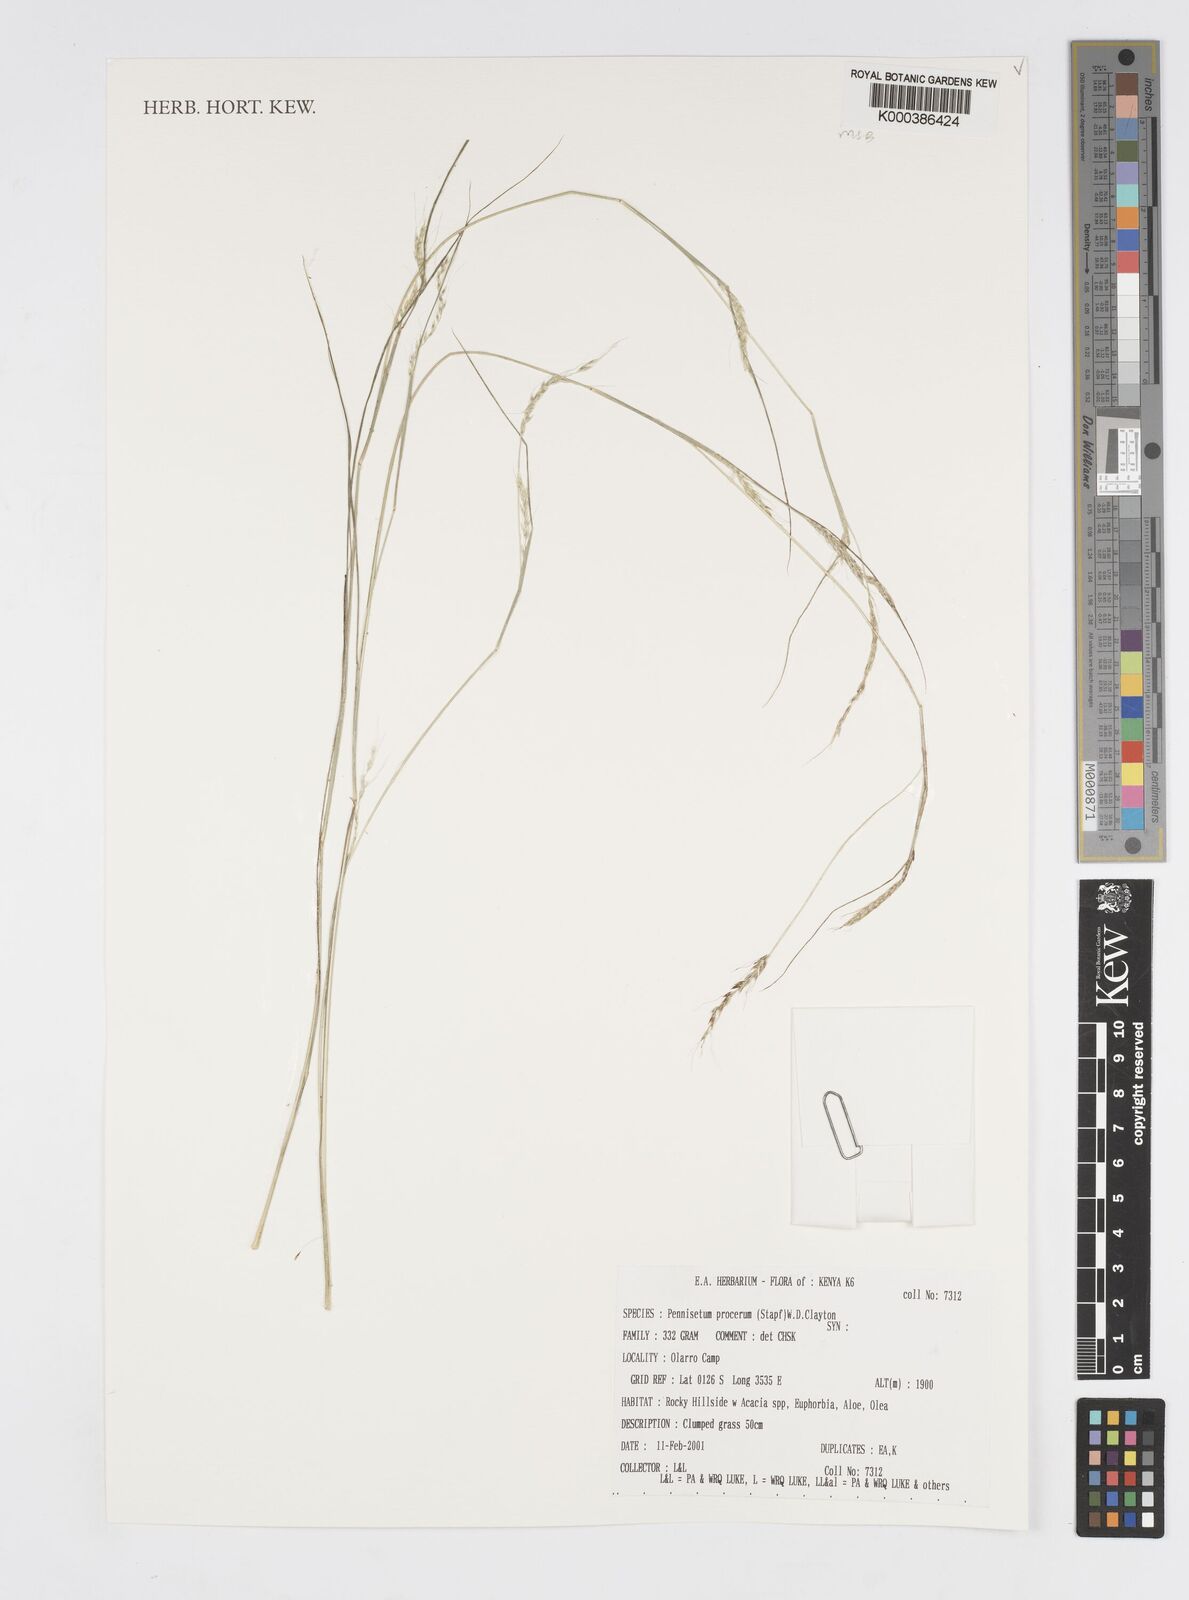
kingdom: Plantae
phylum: Tracheophyta
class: Liliopsida
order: Poales
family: Poaceae
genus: Cenchrus
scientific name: Cenchrus procerus
